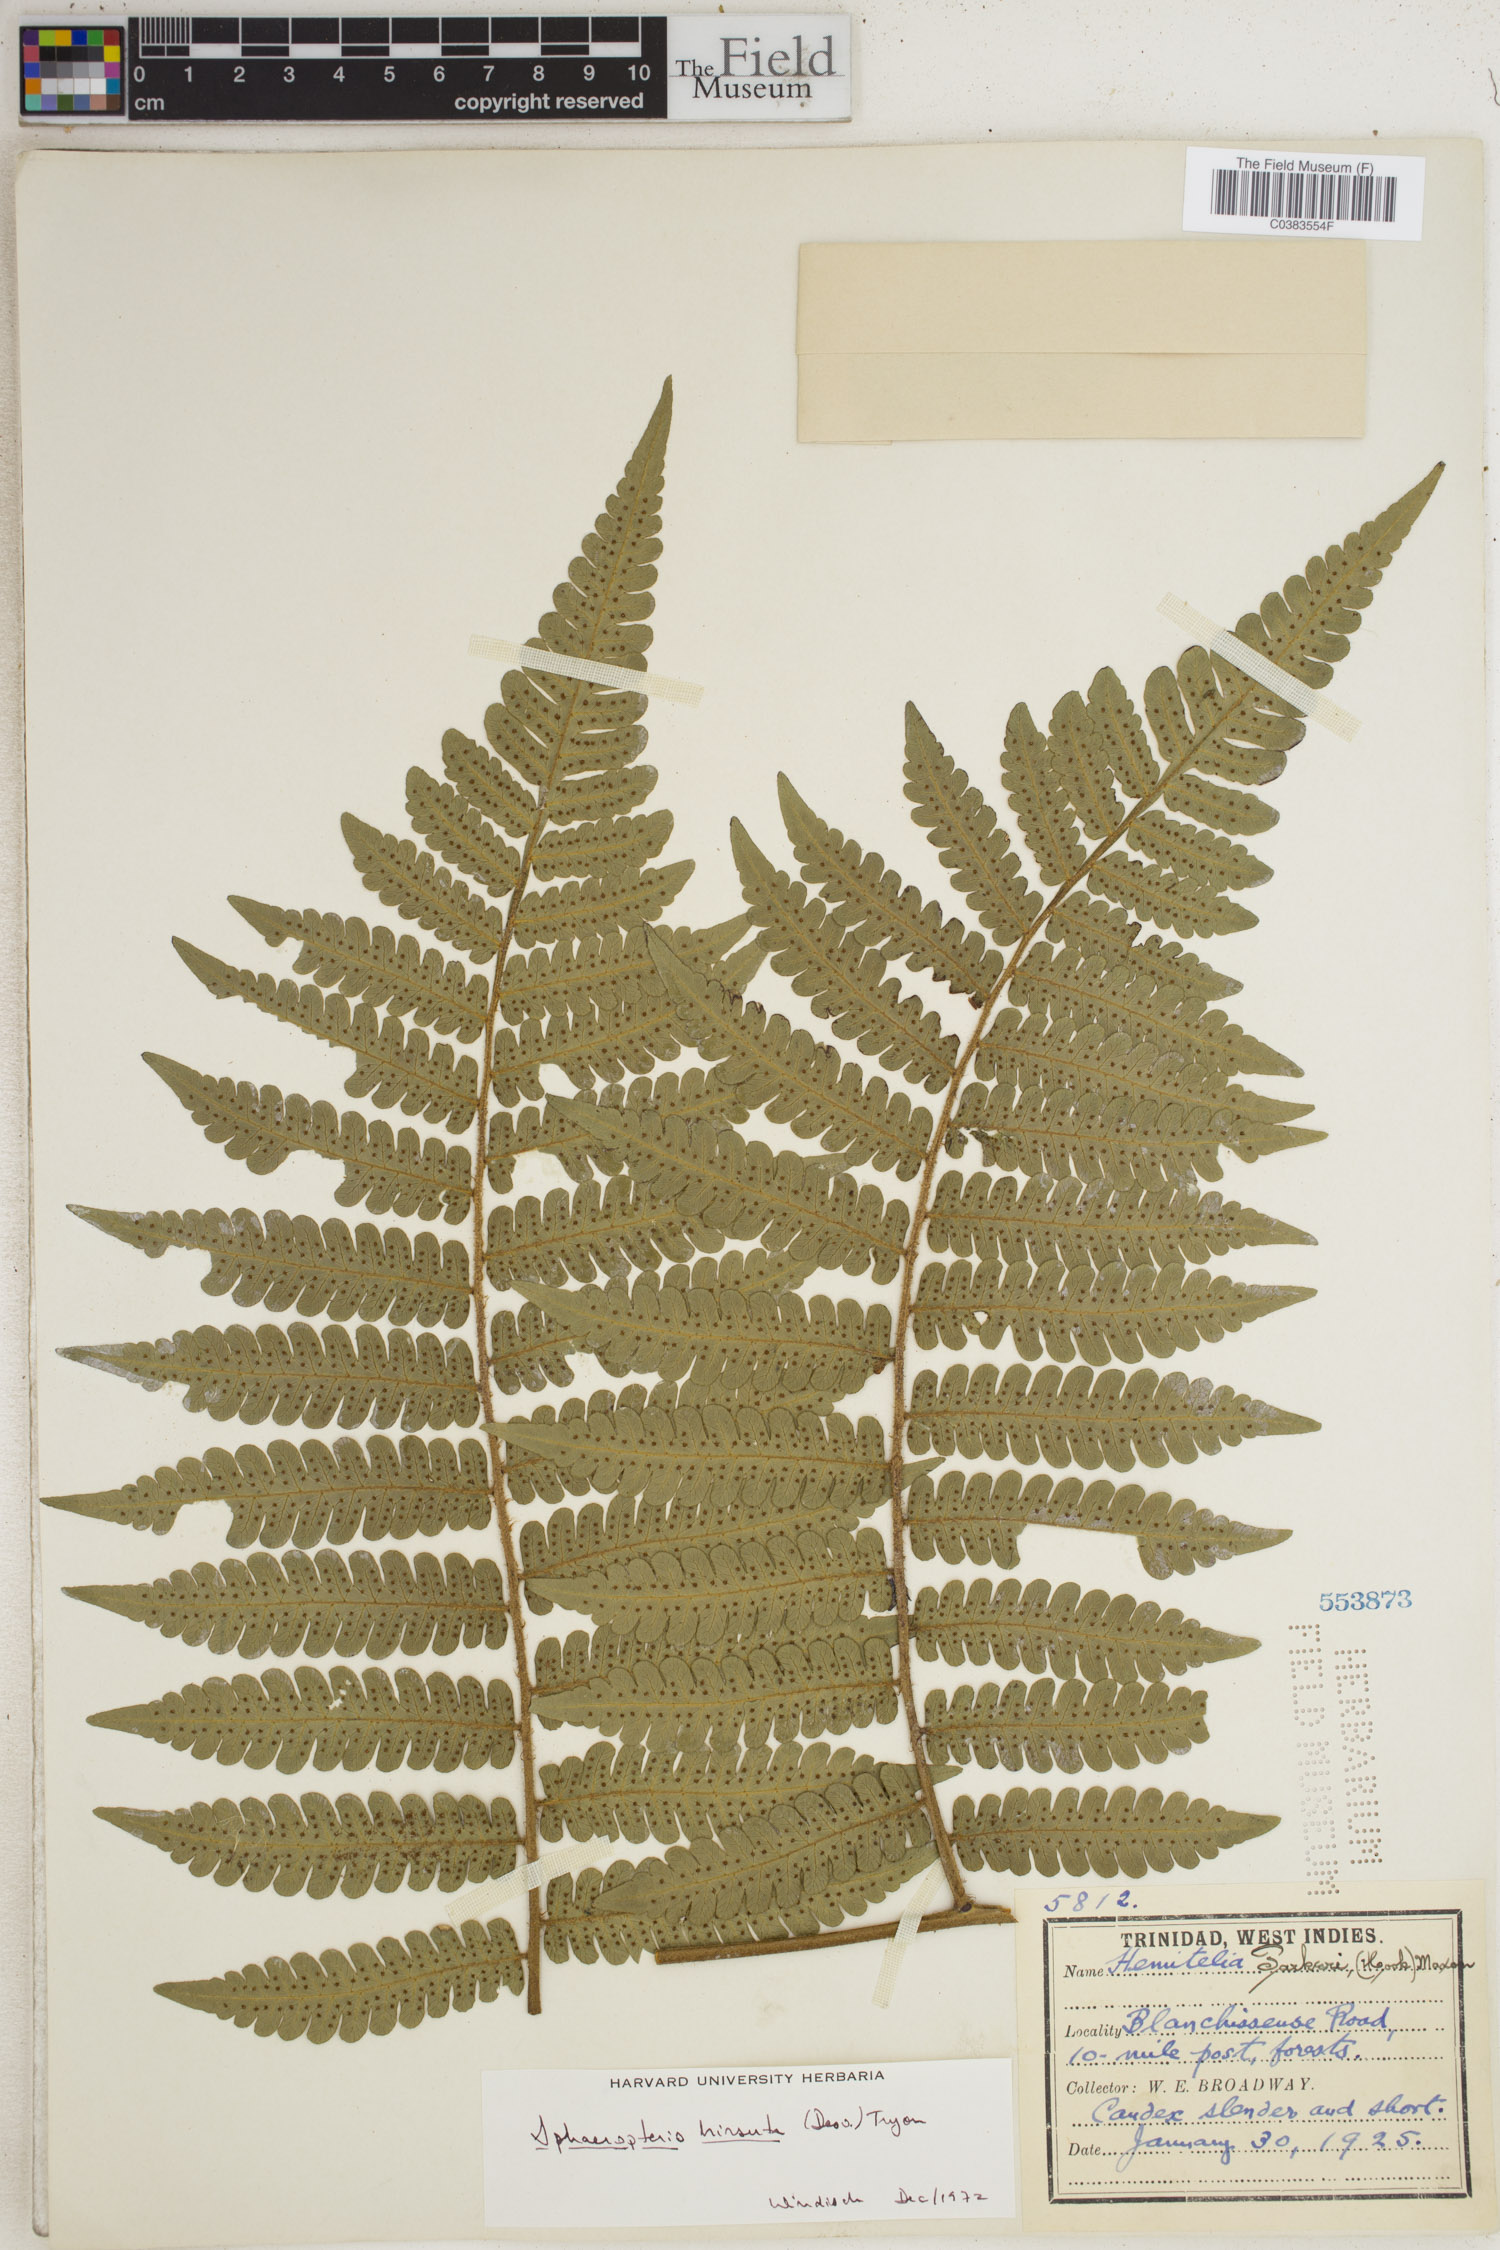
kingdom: Plantae
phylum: Tracheophyta
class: Polypodiopsida
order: Cyatheales
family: Cyatheaceae
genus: Cyathea
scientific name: Cyathea surinamensis
